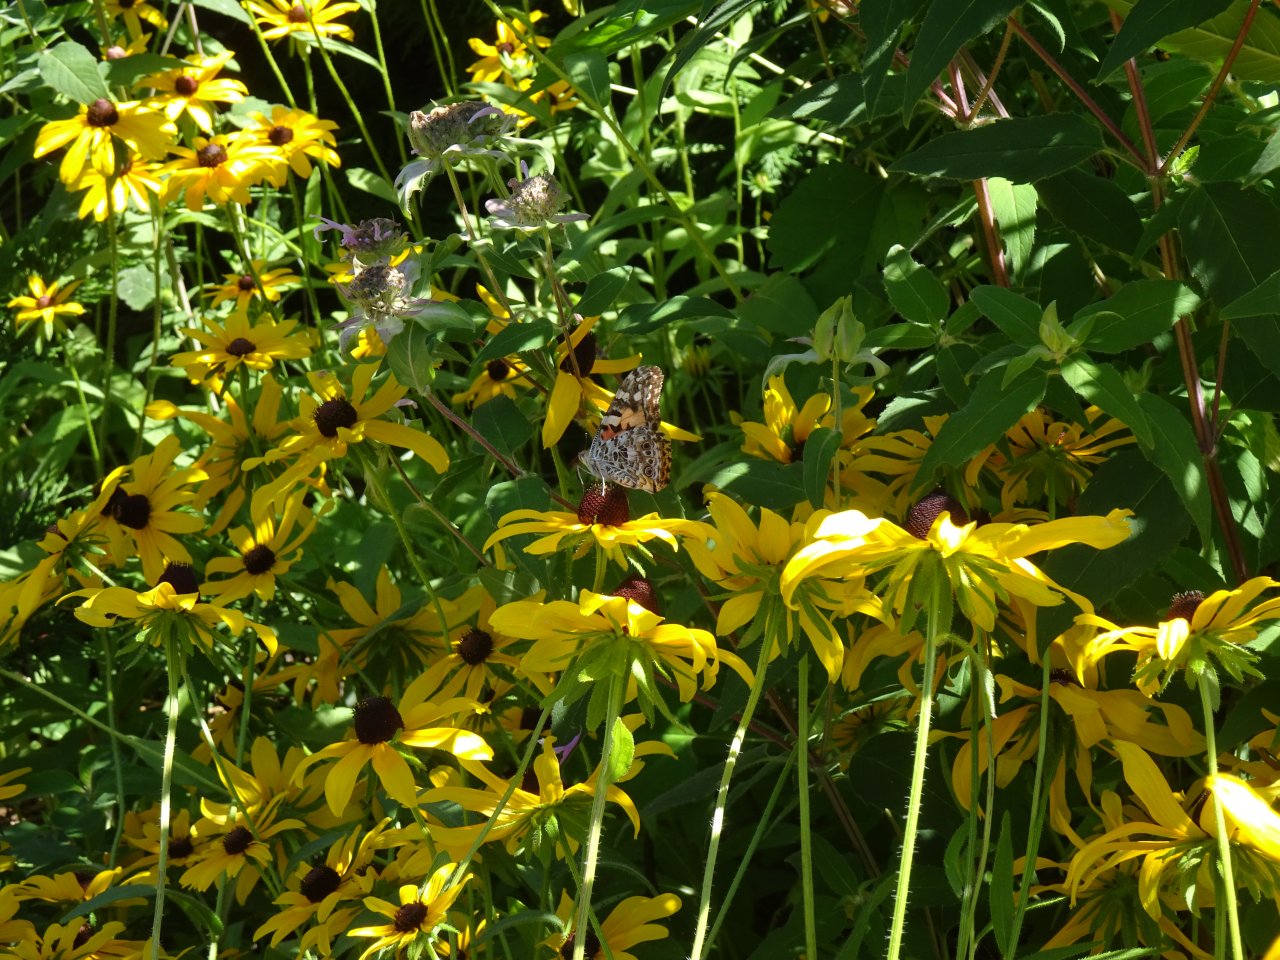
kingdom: Animalia
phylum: Arthropoda
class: Insecta
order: Lepidoptera
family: Nymphalidae
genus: Vanessa
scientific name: Vanessa cardui
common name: Painted Lady
